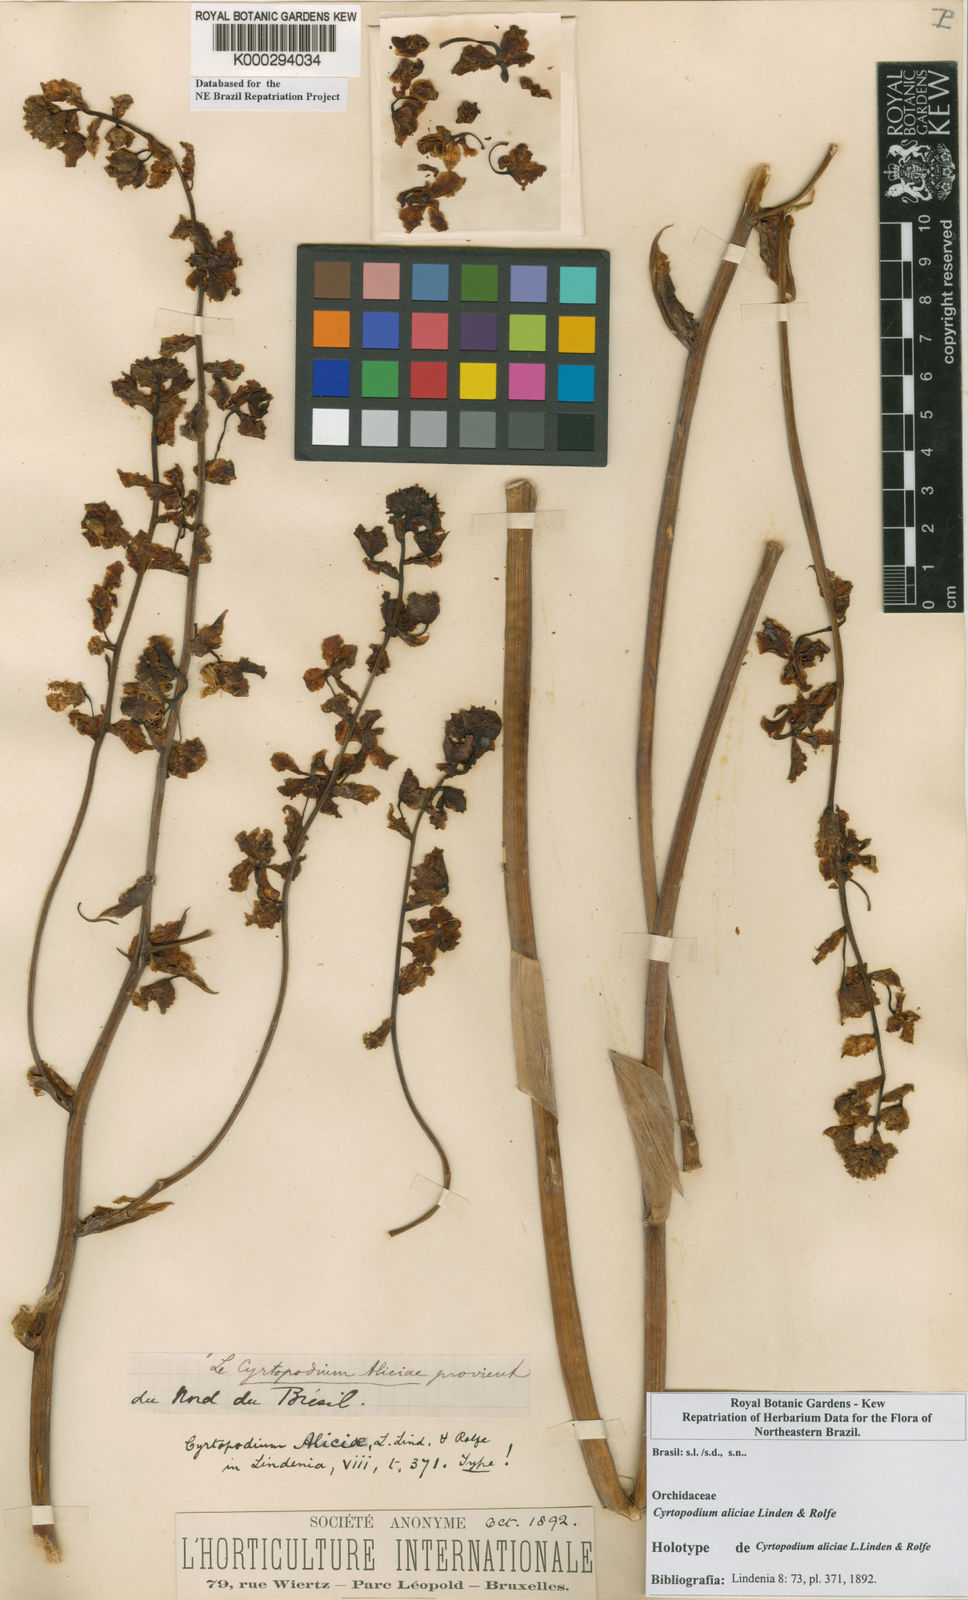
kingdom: Plantae
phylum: Tracheophyta
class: Liliopsida
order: Asparagales
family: Orchidaceae
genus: Cyrtopodium
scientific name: Cyrtopodium aliciae
